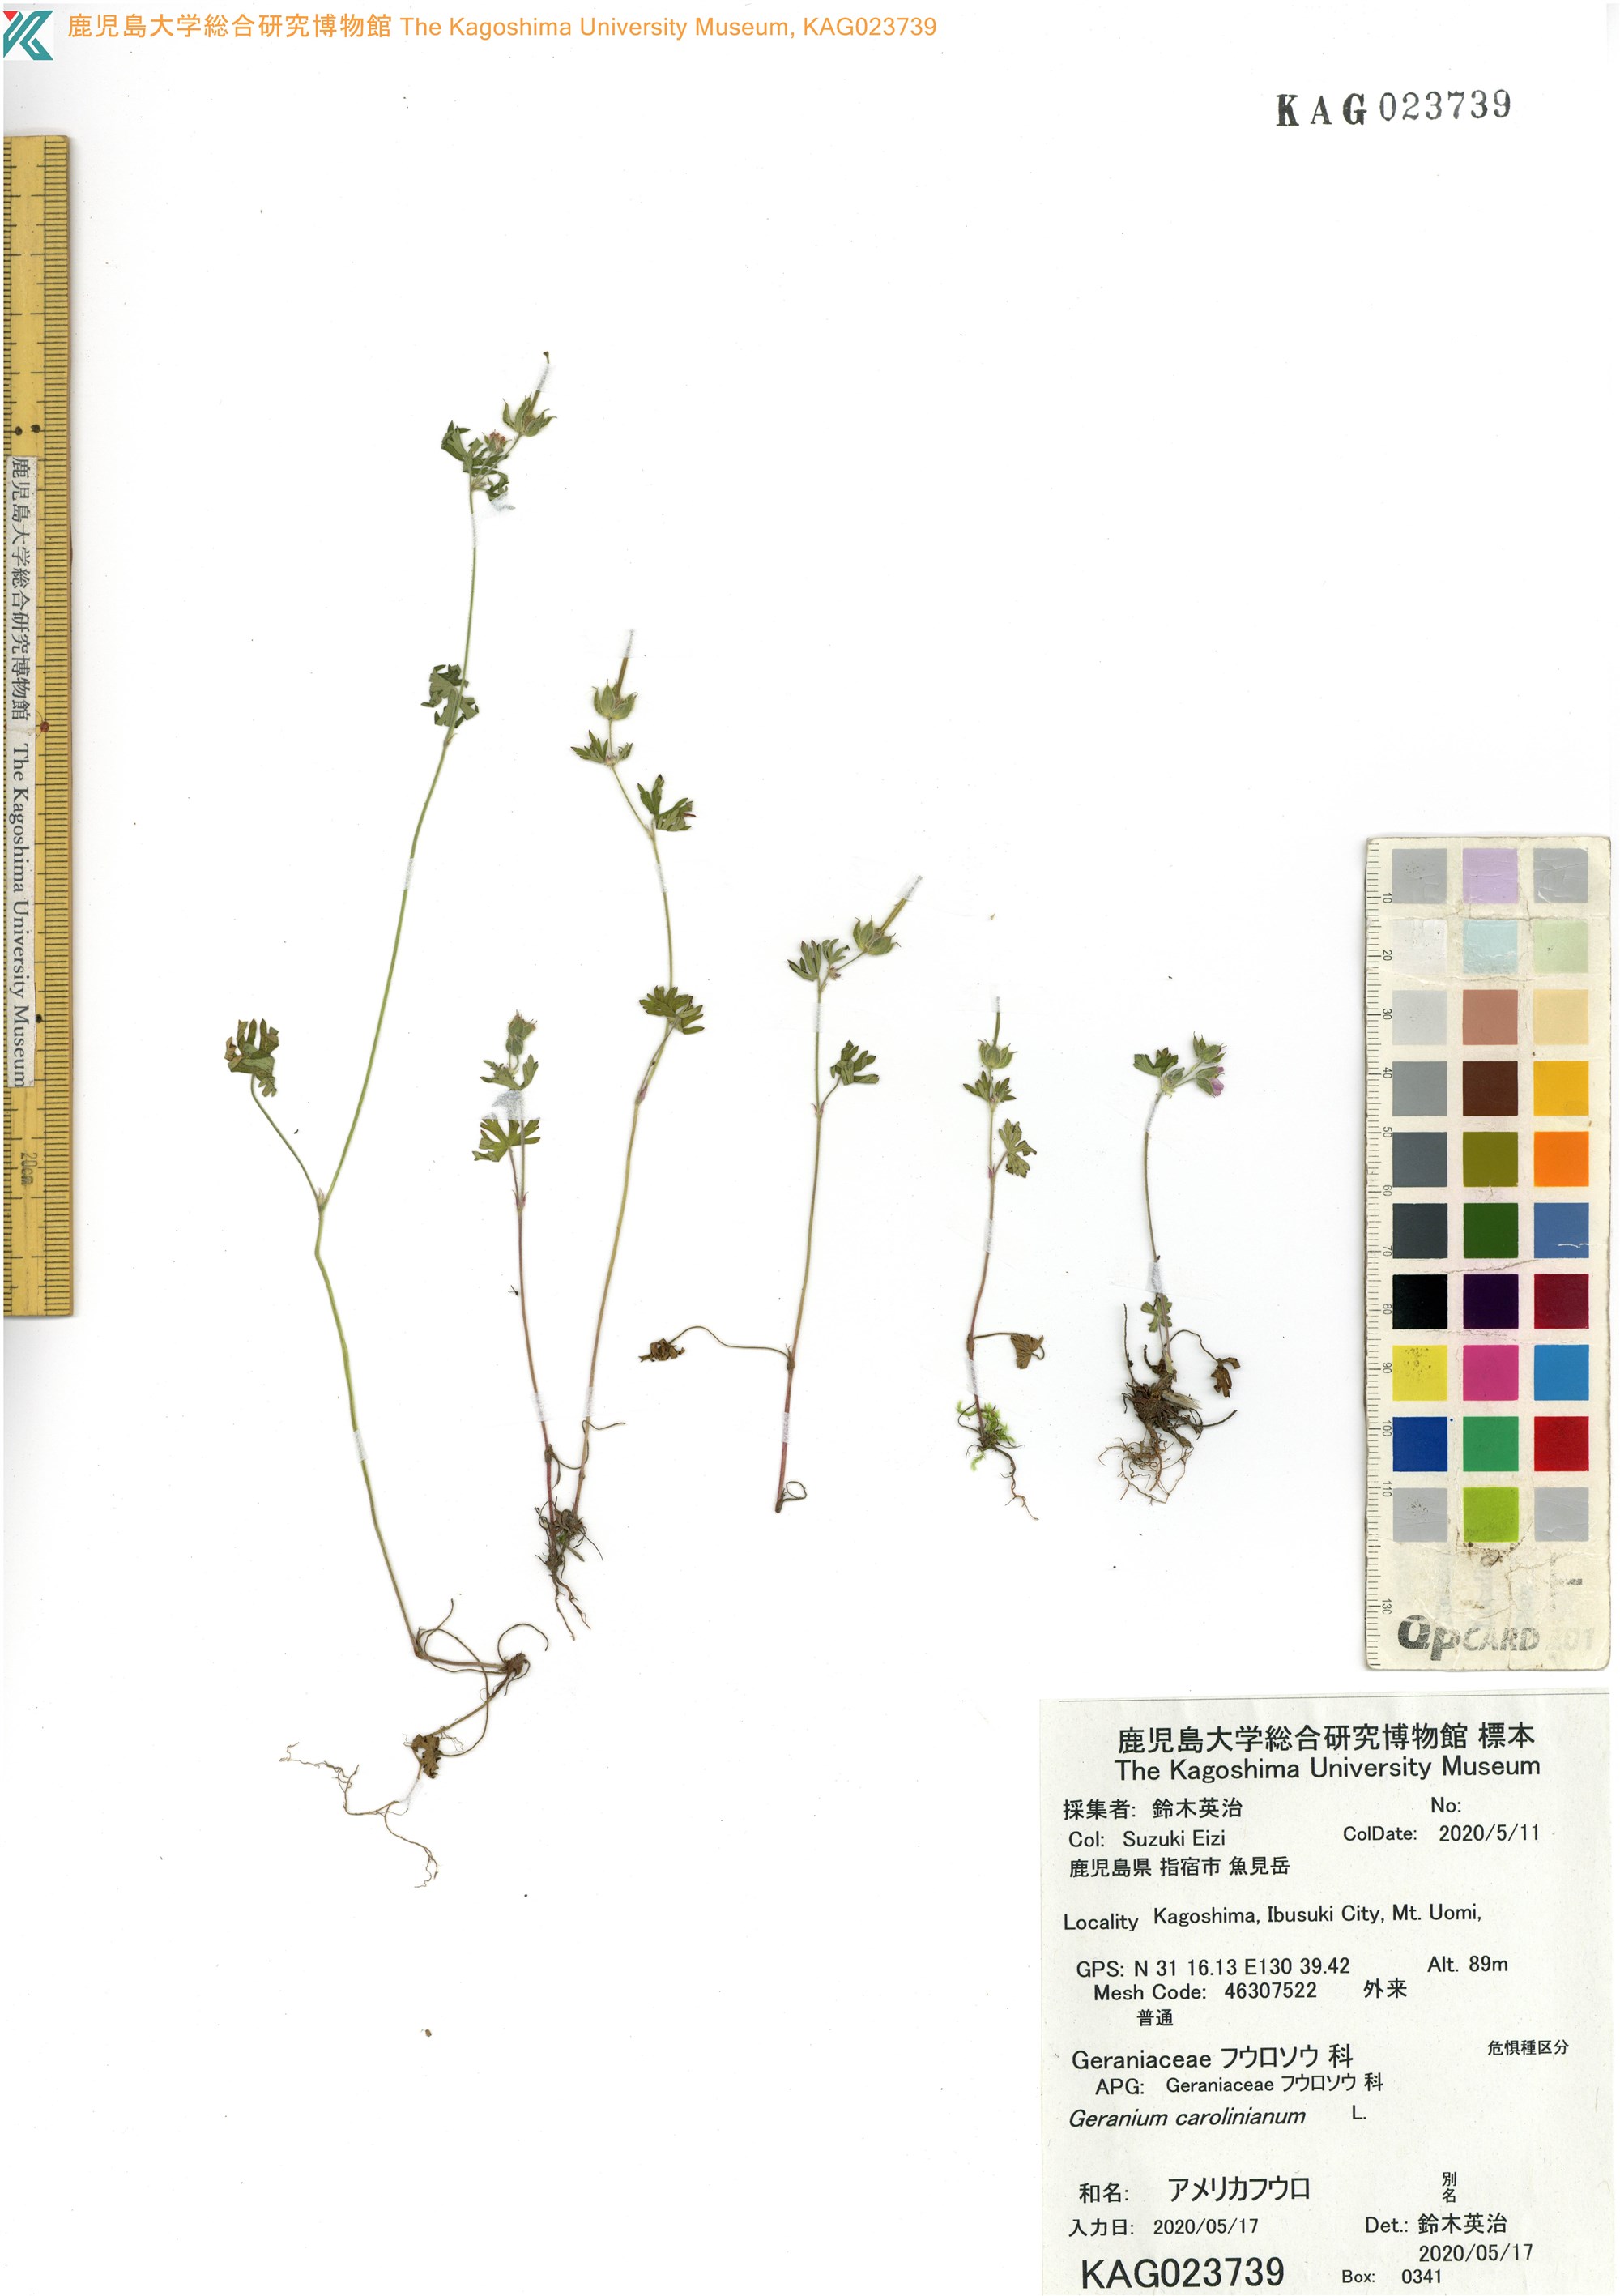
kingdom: Plantae
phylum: Tracheophyta
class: Magnoliopsida
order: Geraniales
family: Geraniaceae
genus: Geranium
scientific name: Geranium carolinianum
